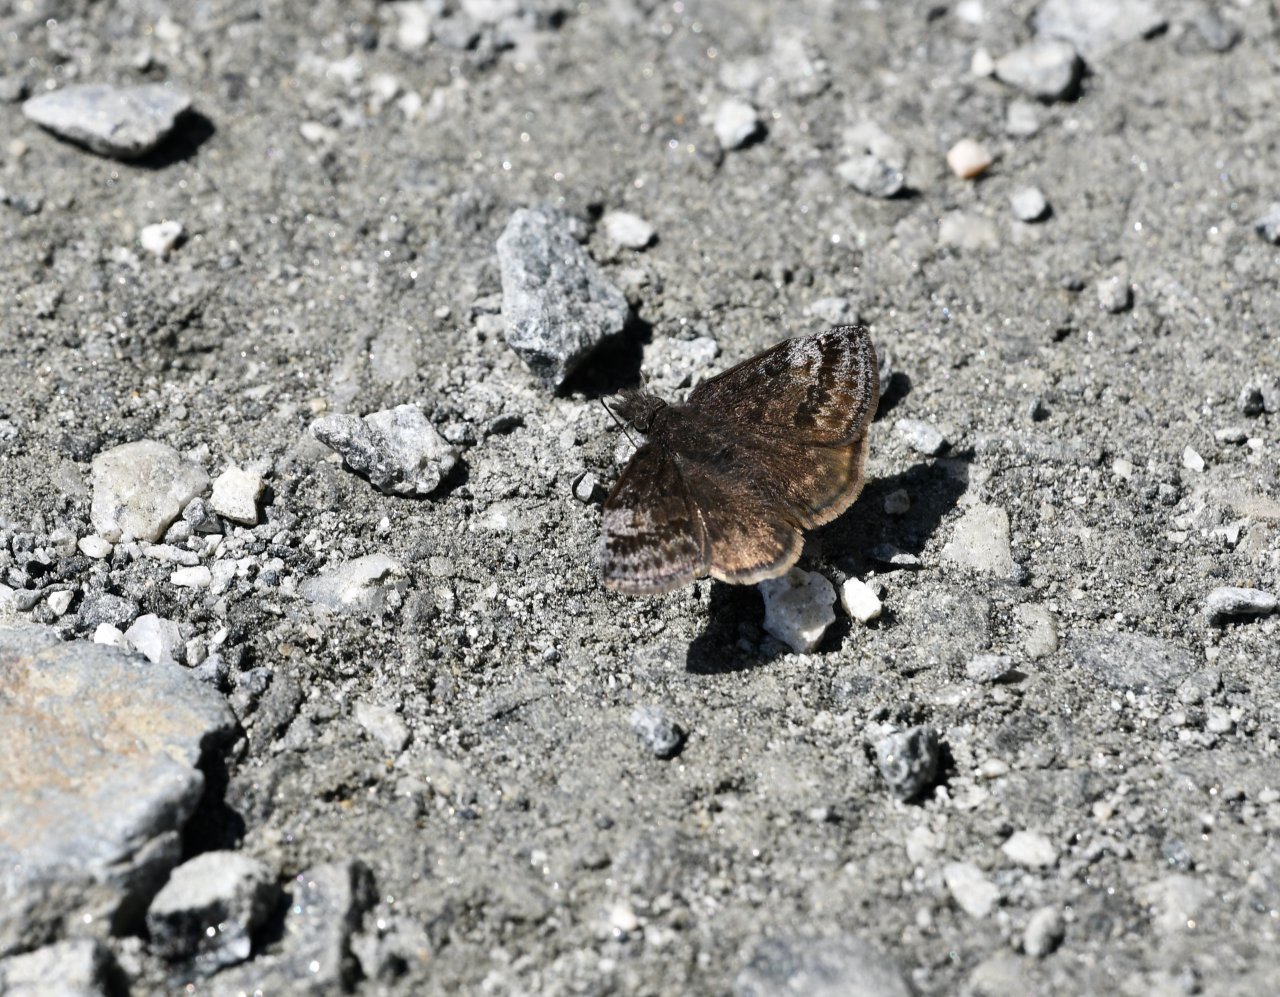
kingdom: Animalia
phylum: Arthropoda
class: Insecta
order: Lepidoptera
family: Hesperiidae
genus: Erynnis
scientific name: Erynnis icelus
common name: Dreamy Duskywing
